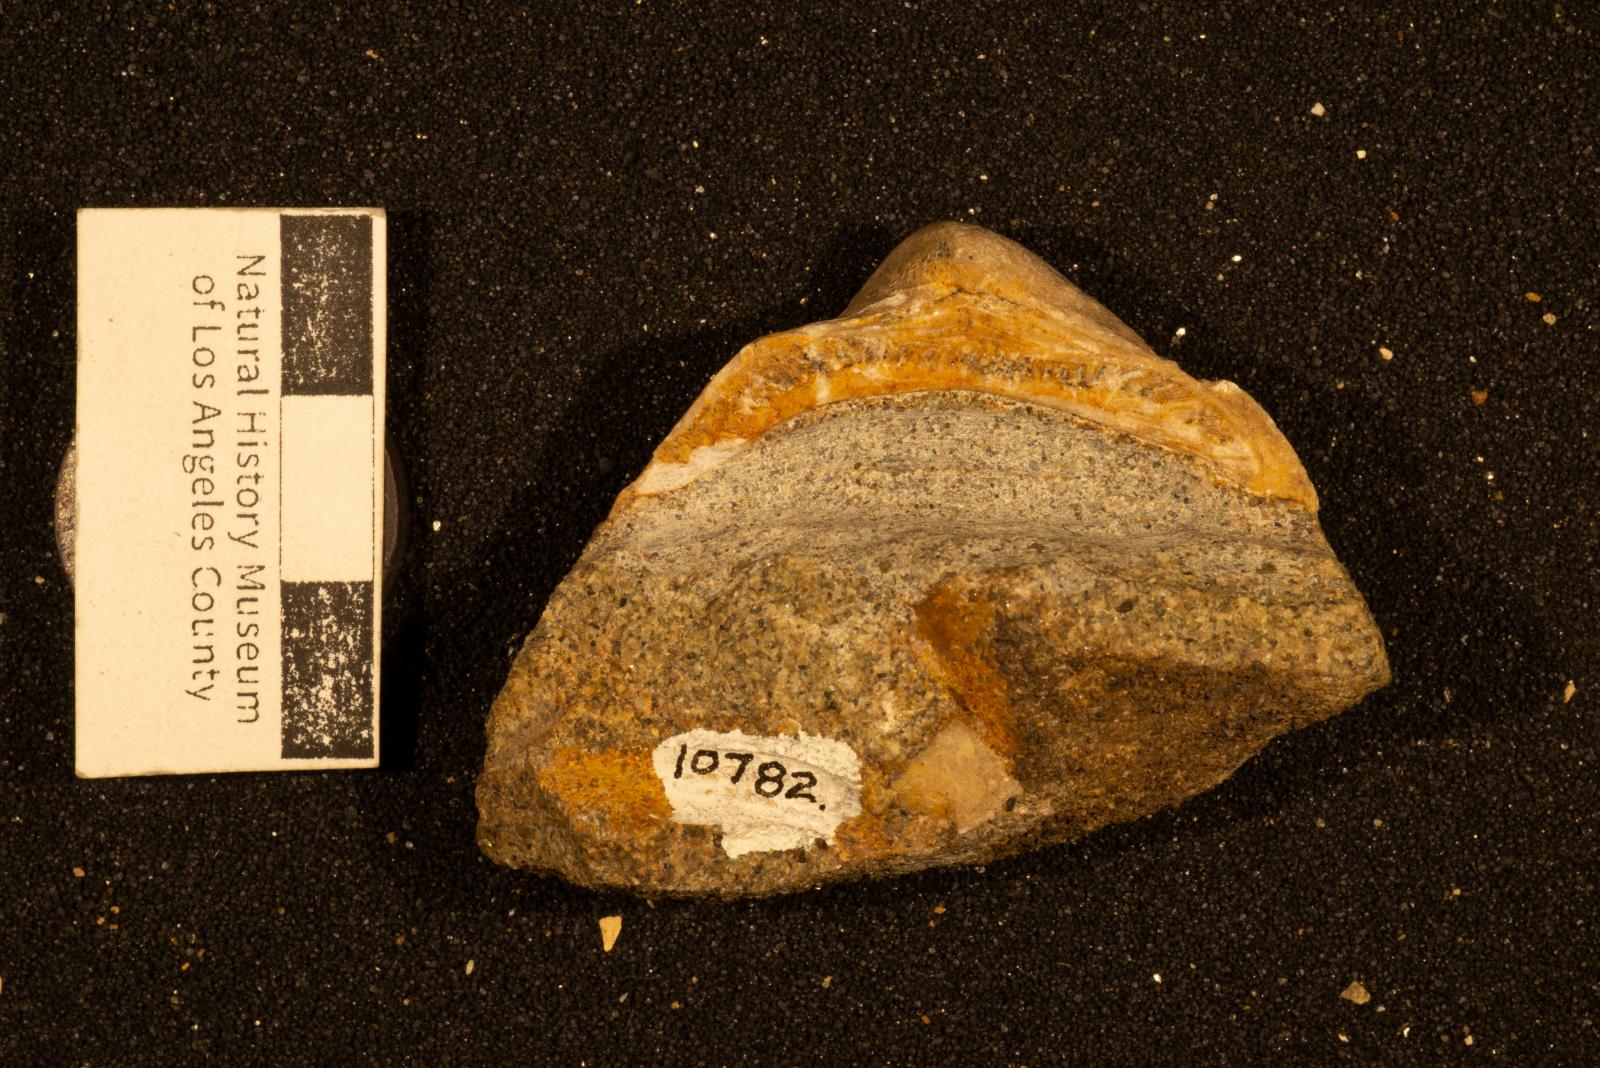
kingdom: Animalia
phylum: Mollusca
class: Bivalvia
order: Arcida
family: Arcidae
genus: Trigonarca
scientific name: Trigonarca
